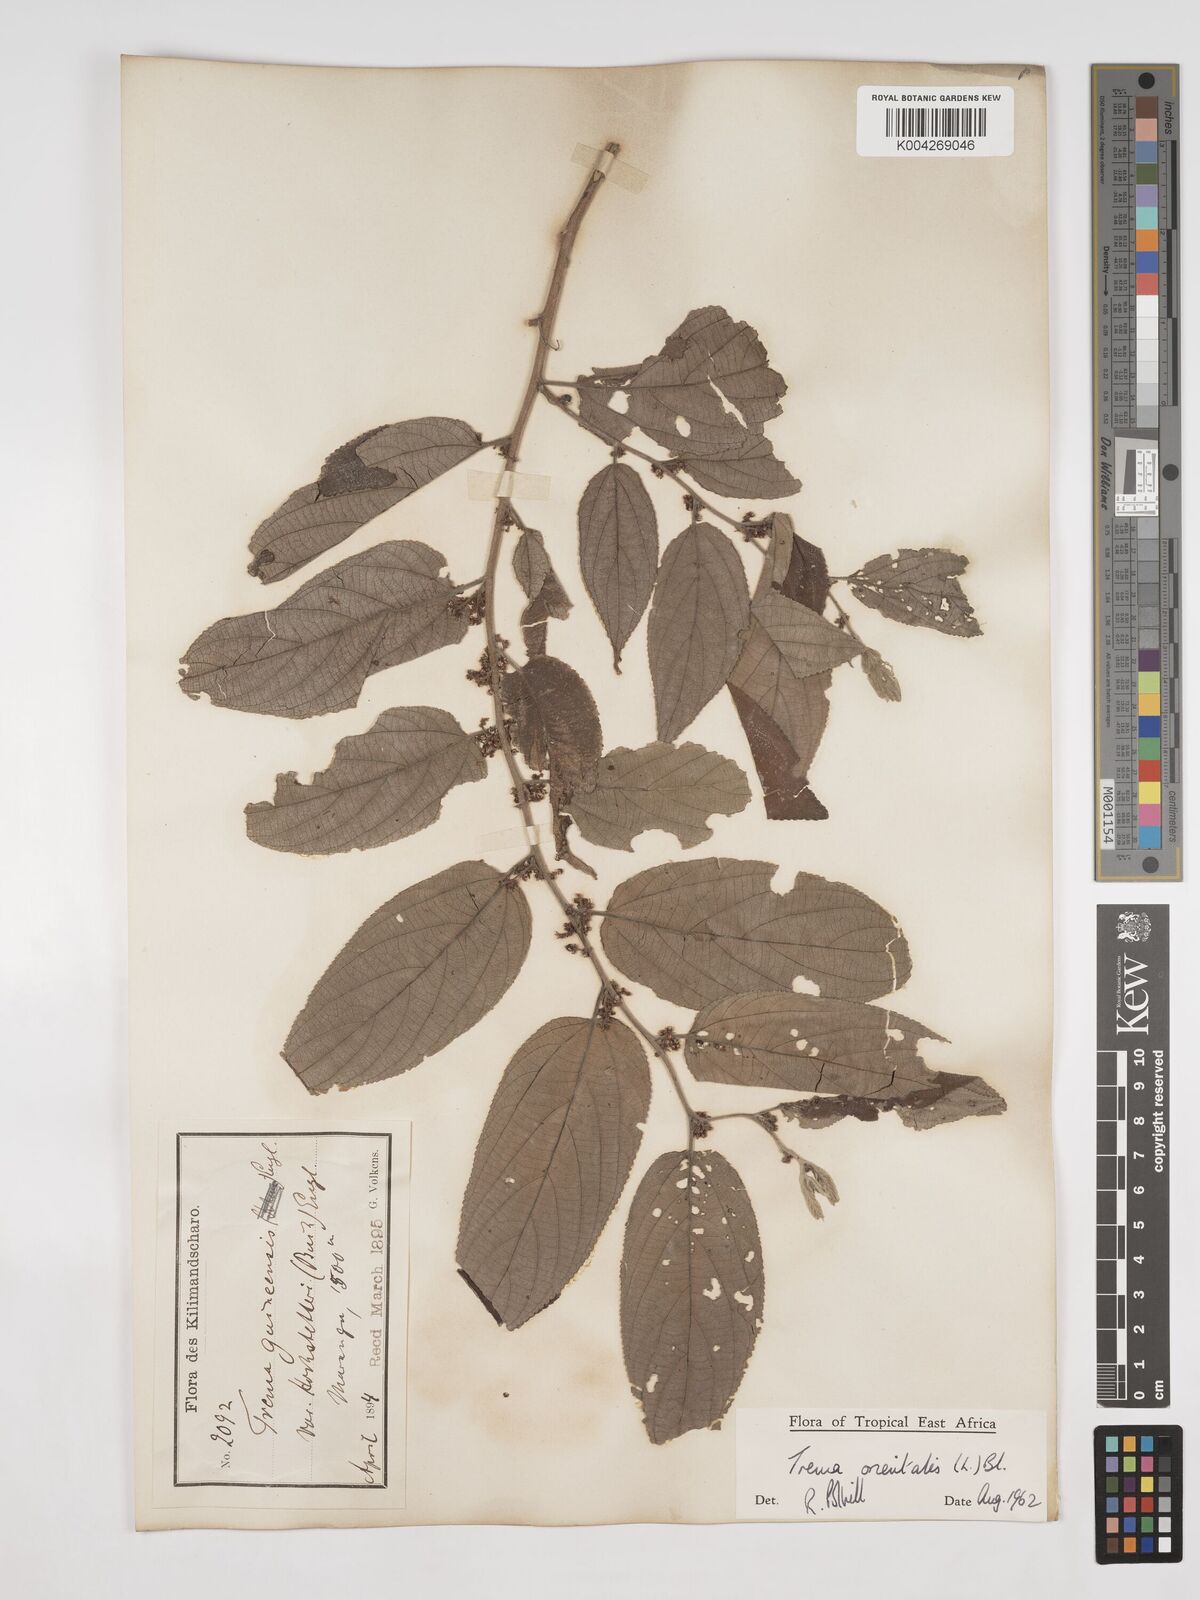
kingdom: Plantae
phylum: Tracheophyta
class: Magnoliopsida
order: Rosales
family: Cannabaceae
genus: Trema
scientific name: Trema orientale
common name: Indian charcoal tree
